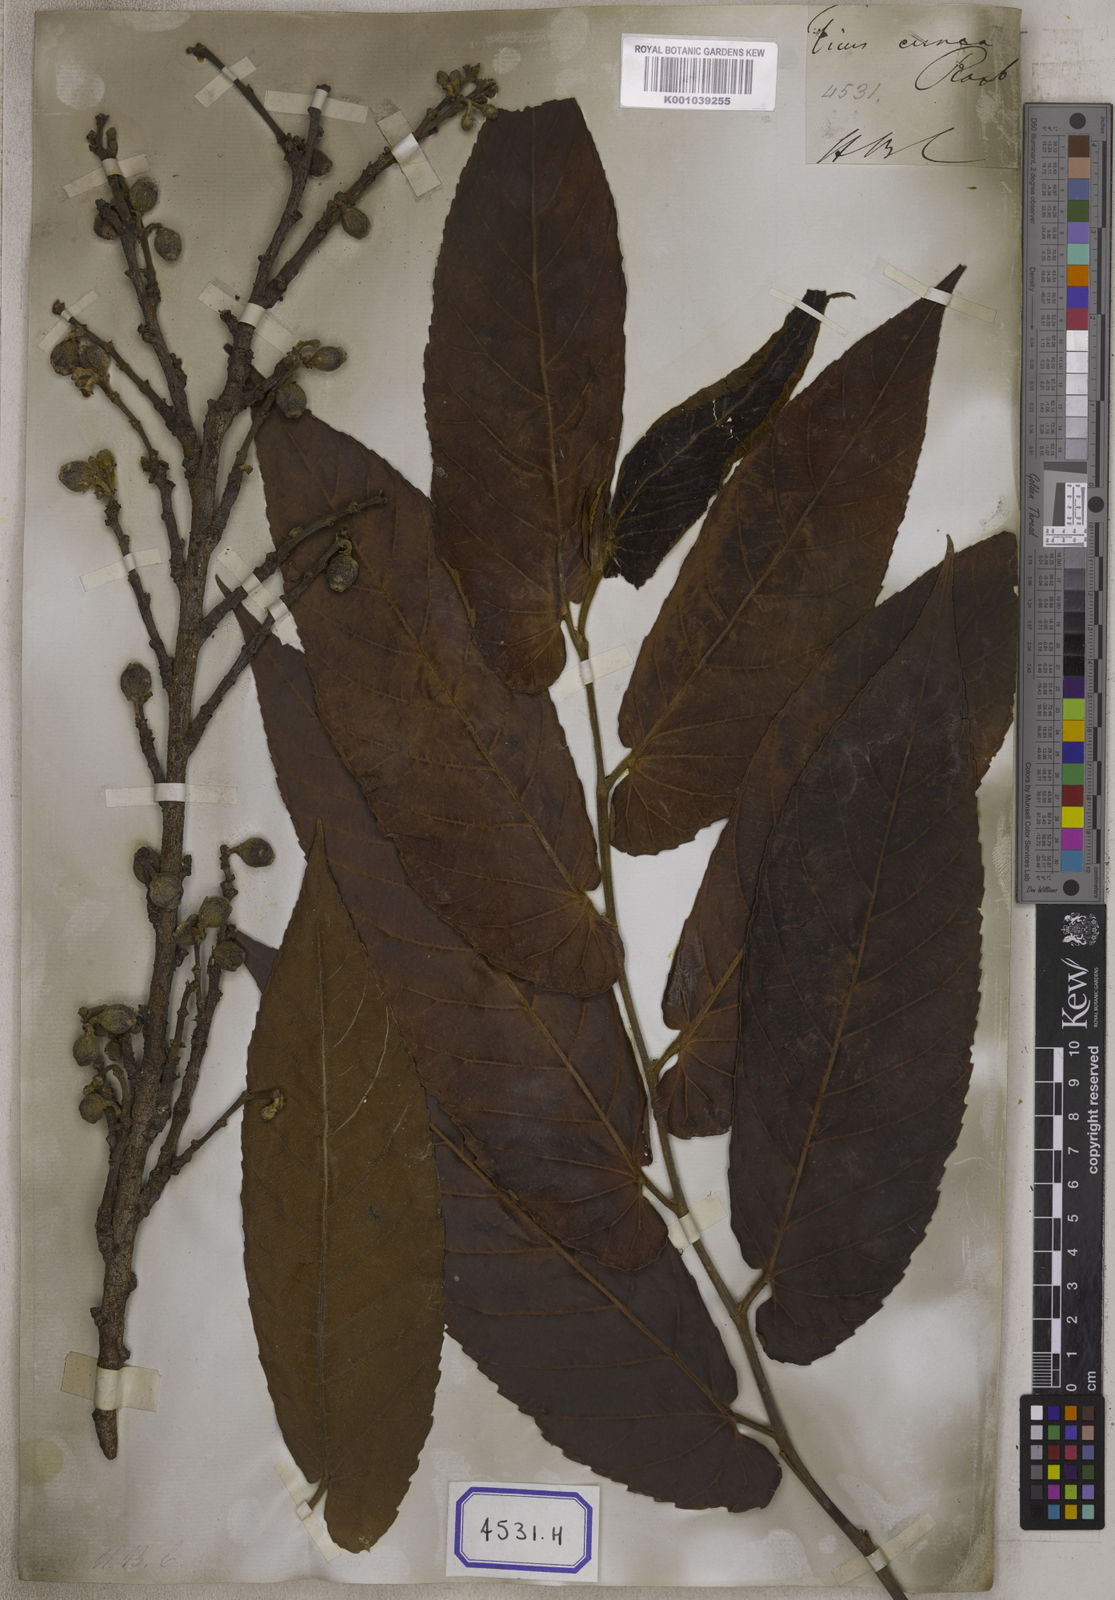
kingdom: Plantae
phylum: Tracheophyta
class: Magnoliopsida
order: Rosales
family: Moraceae
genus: Ficus
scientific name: Ficus semicordata
